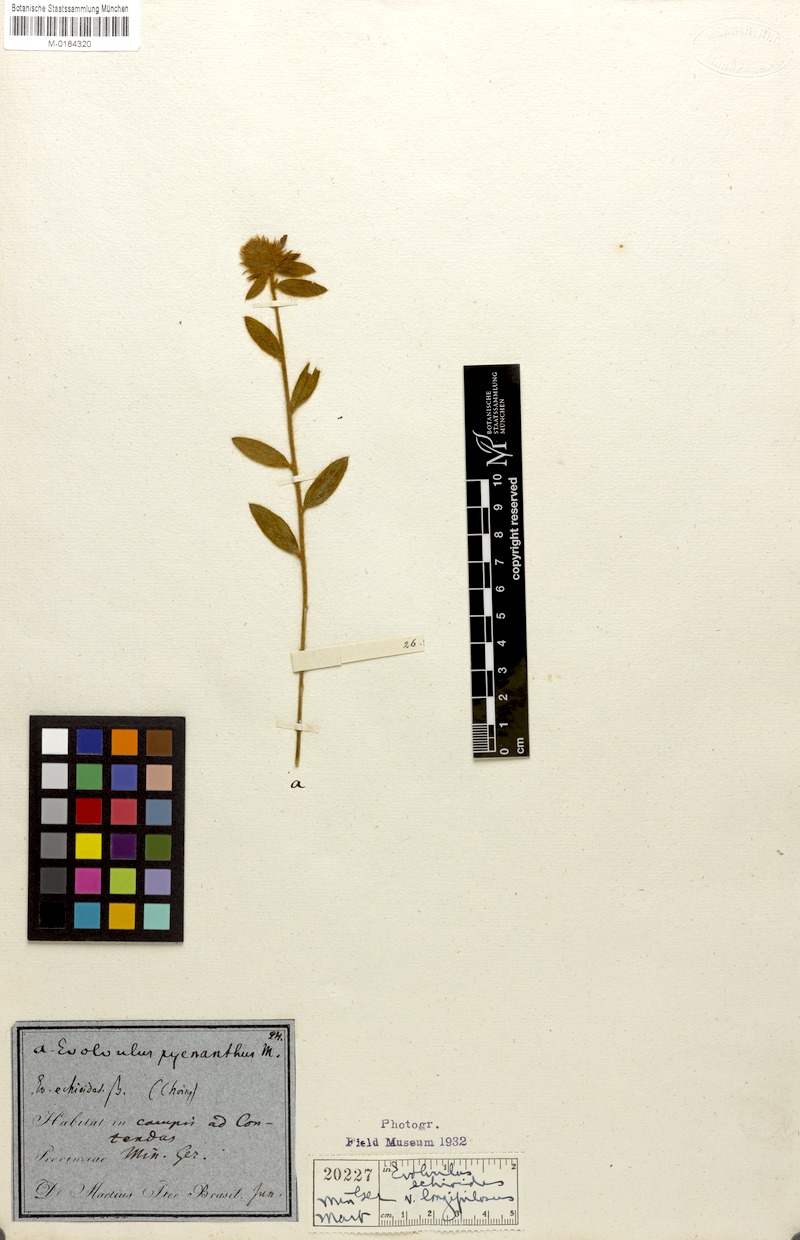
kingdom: Plantae
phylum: Tracheophyta
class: Magnoliopsida
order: Solanales
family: Convolvulaceae
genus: Evolvulus
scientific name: Evolvulus glomeratus
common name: Brazilian dwarf morning-glory
